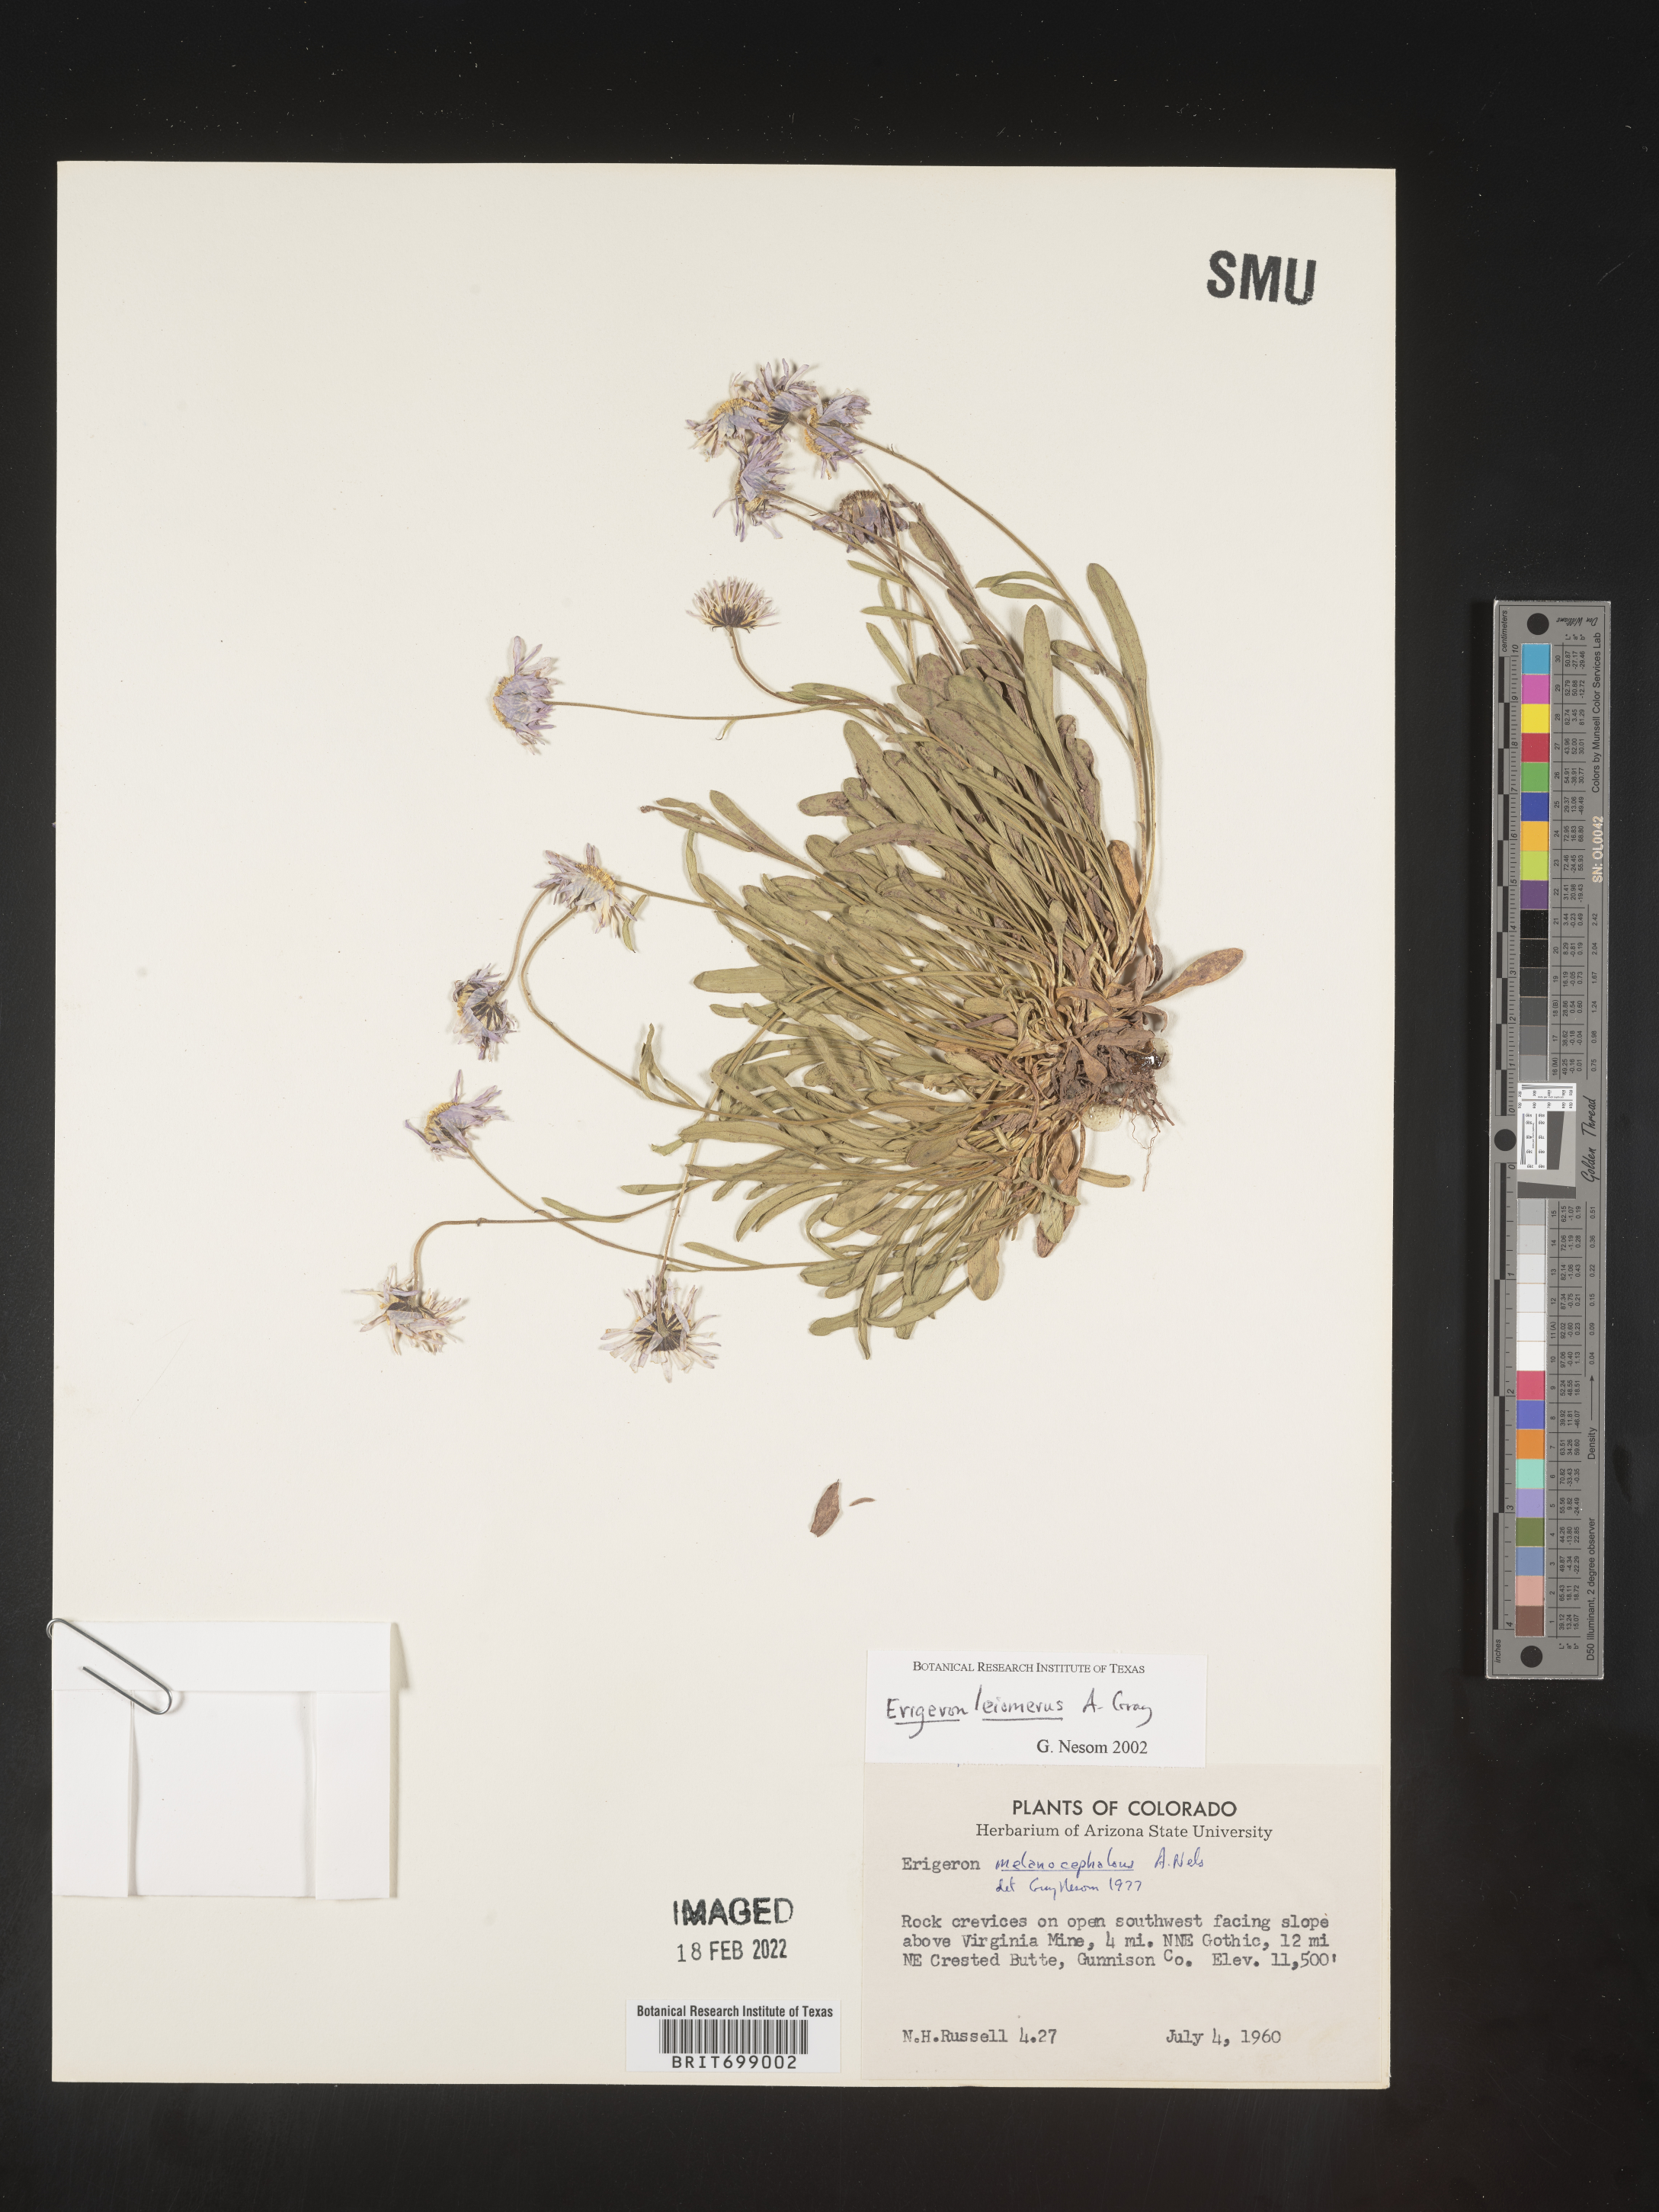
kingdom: Plantae
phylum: Tracheophyta
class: Magnoliopsida
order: Asterales
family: Asteraceae
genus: Erigeron
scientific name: Erigeron leiomerus
